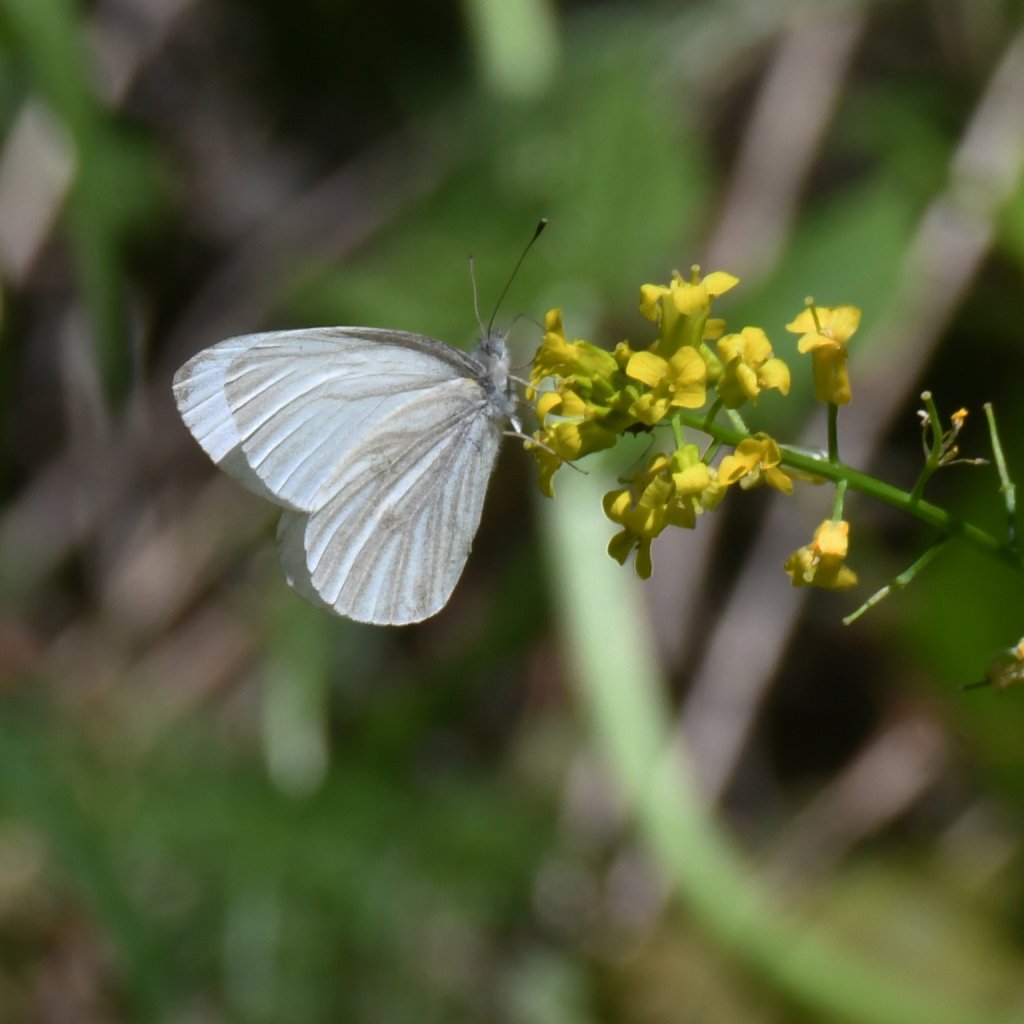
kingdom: Animalia
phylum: Arthropoda
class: Insecta
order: Lepidoptera
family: Pieridae
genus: Pieris
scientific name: Pieris virginiensis
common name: West Virginia White
